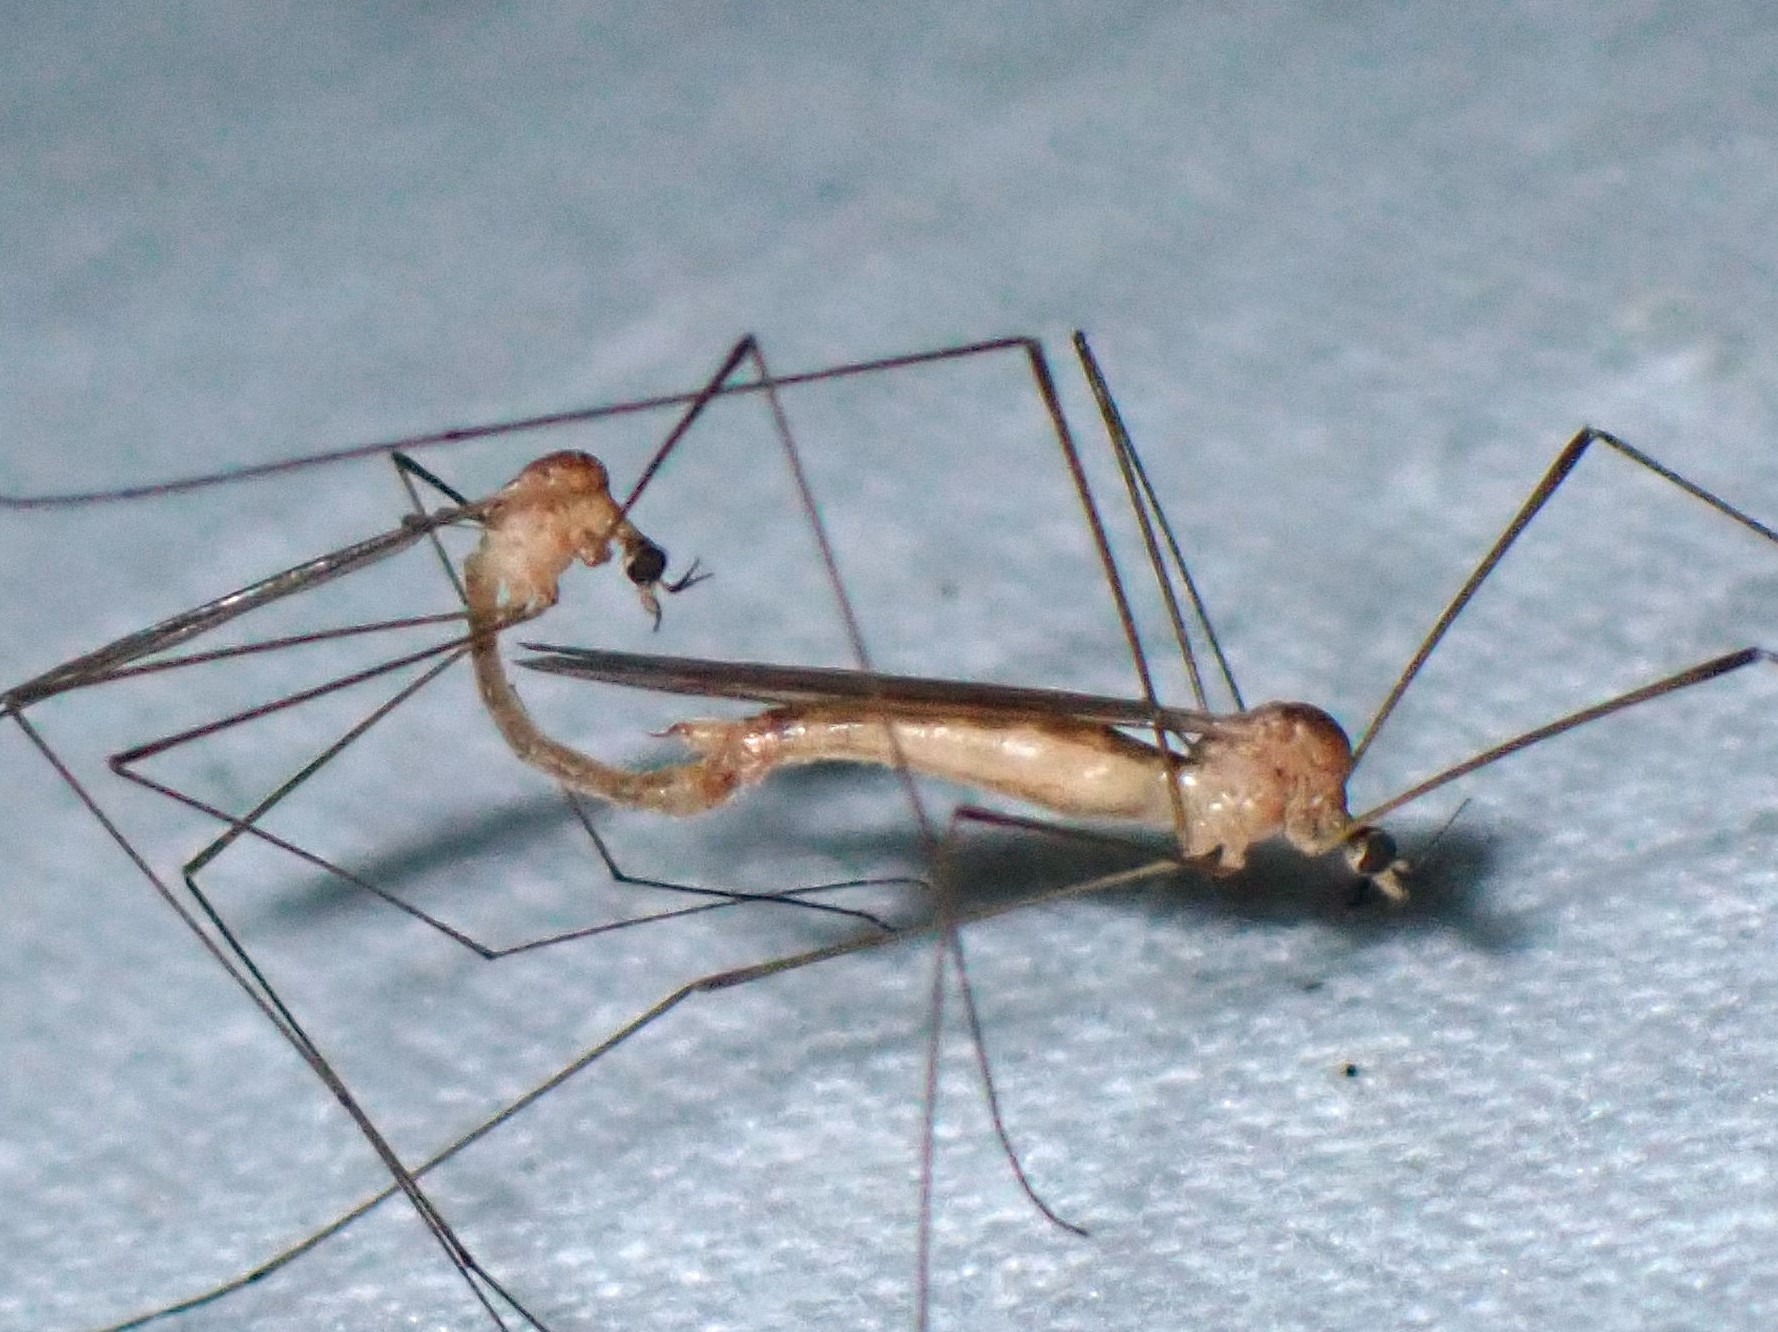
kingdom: Animalia
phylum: Arthropoda
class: Insecta
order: Diptera
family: Limoniidae
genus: Dicranomyia
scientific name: Dicranomyia modesta
